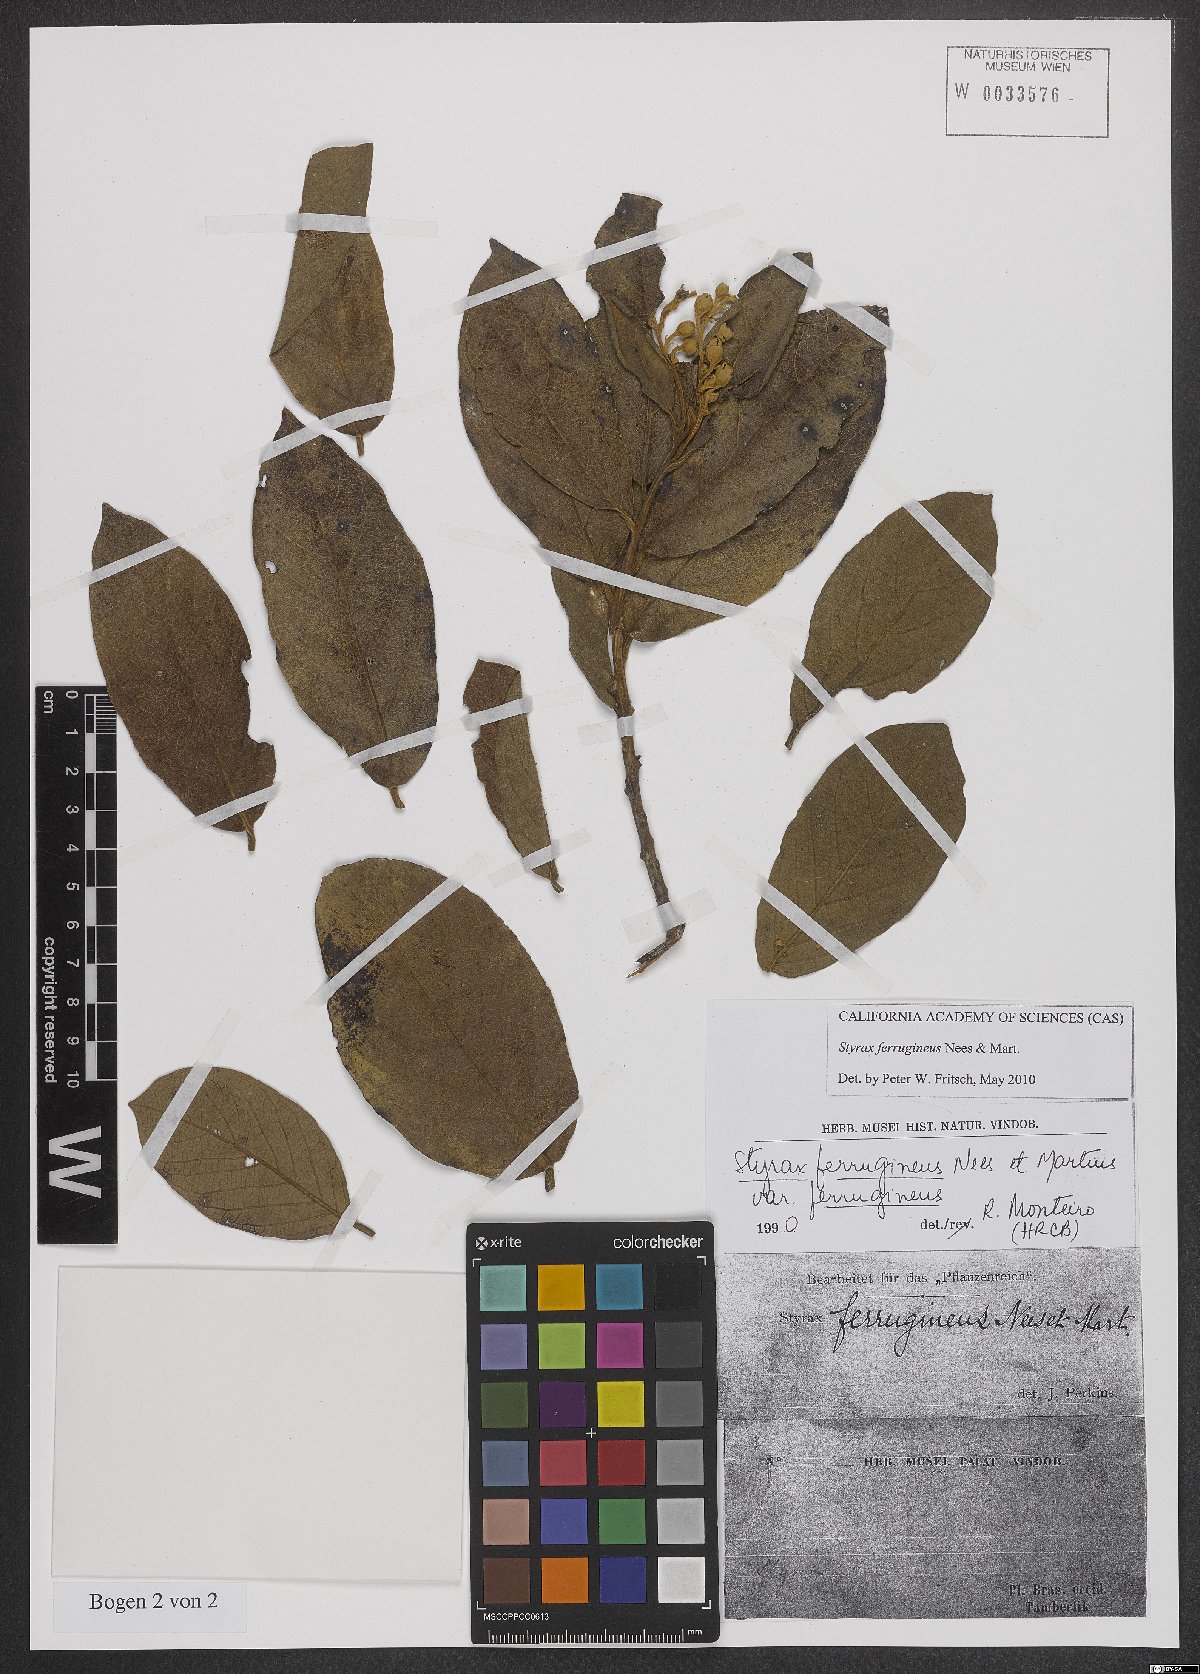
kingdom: Plantae
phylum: Tracheophyta
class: Magnoliopsida
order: Ericales
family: Styracaceae
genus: Styrax
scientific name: Styrax ferrugineus
